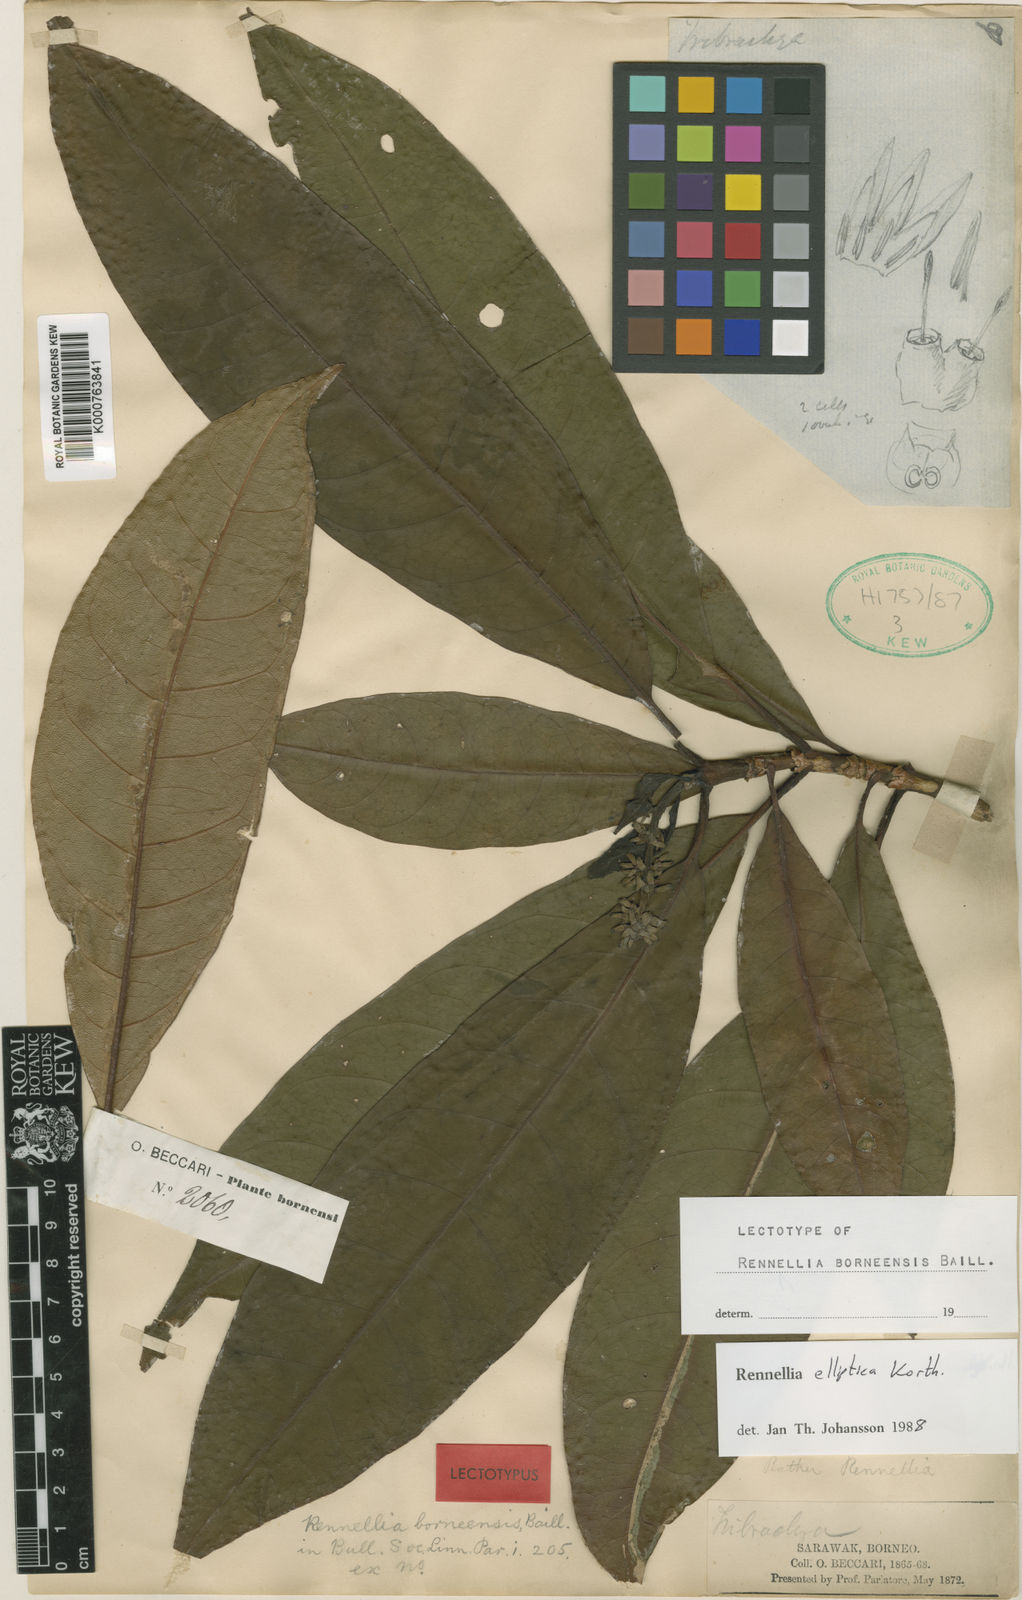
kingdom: Plantae
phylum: Tracheophyta
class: Magnoliopsida
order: Gentianales
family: Rubiaceae
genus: Rennellia
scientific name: Rennellia elliptica
